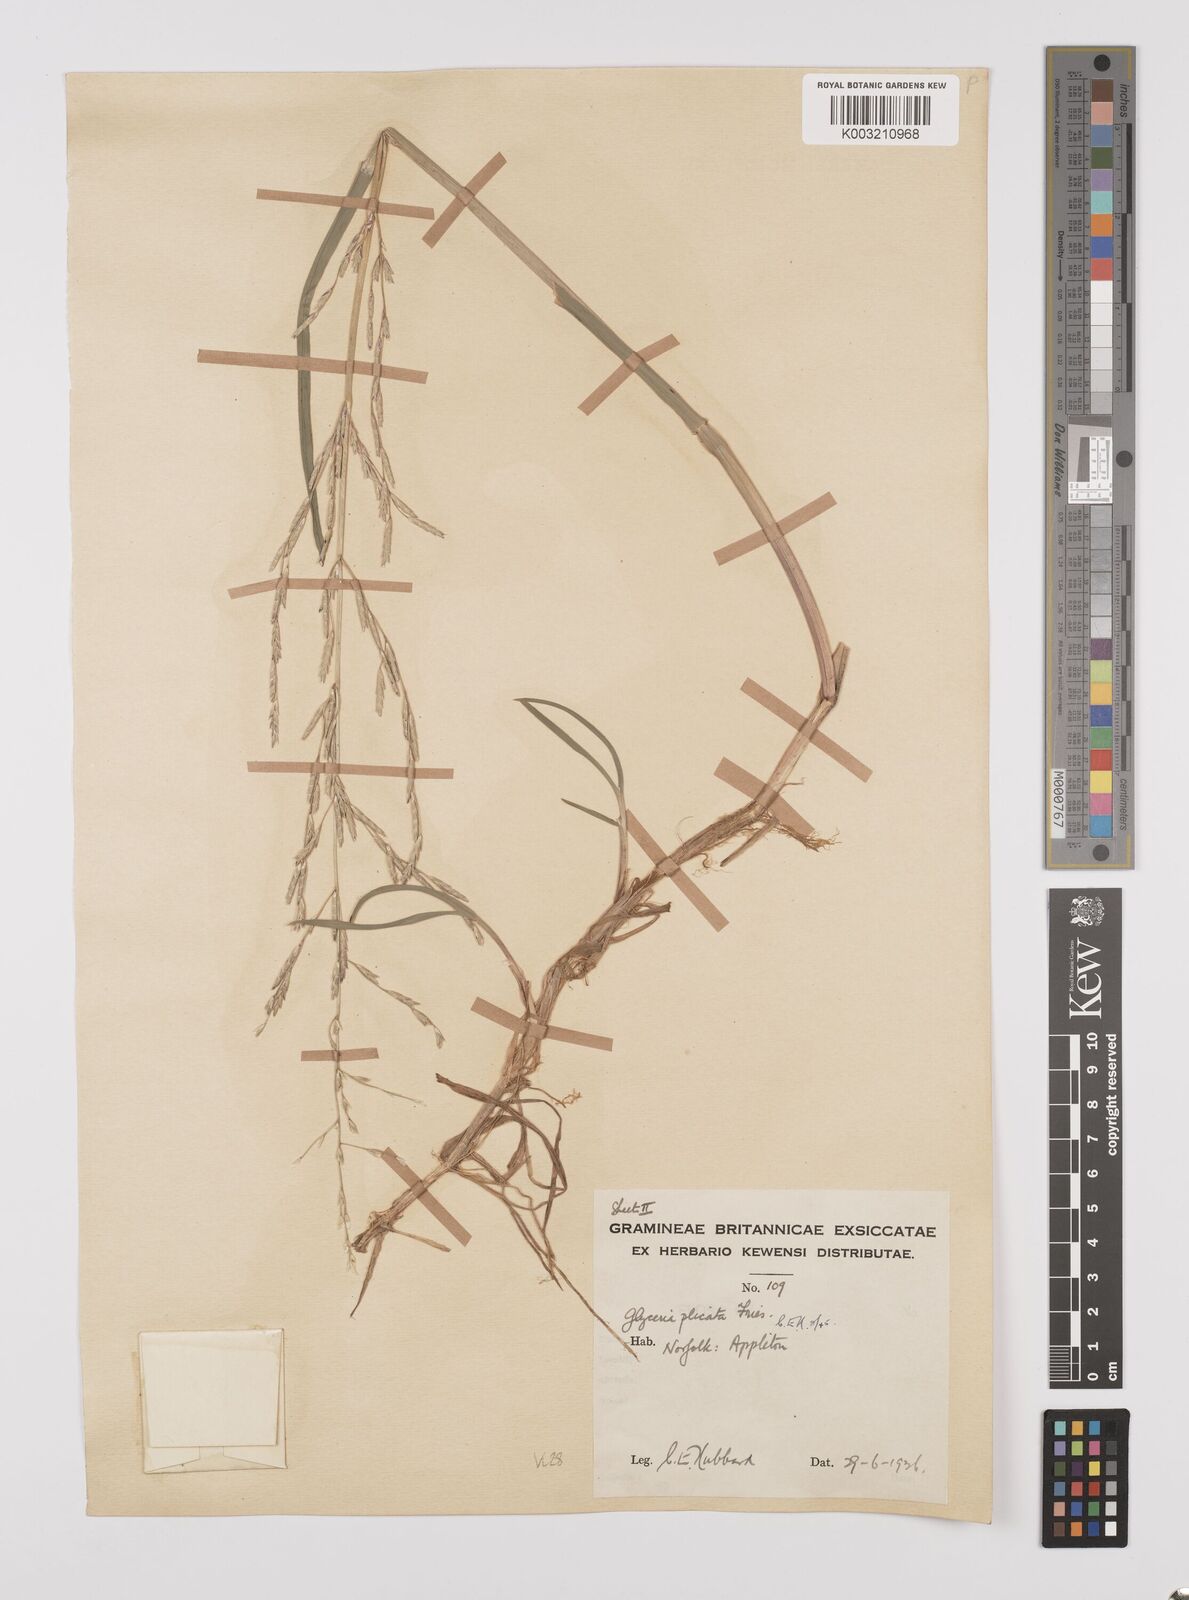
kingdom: Plantae
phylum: Tracheophyta
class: Liliopsida
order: Poales
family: Poaceae
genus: Glyceria
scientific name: Glyceria notata
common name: Plicate sweet-grass
